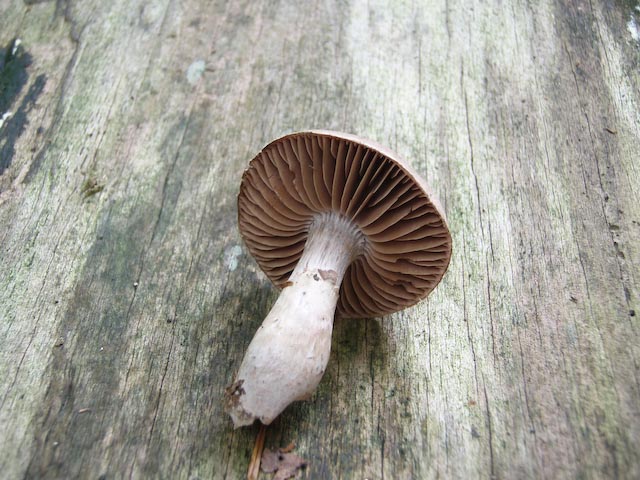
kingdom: Fungi
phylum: Basidiomycota
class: Agaricomycetes
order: Agaricales
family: Cortinariaceae
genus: Cortinarius
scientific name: Cortinarius torvus
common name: champignonagtig slørhat
